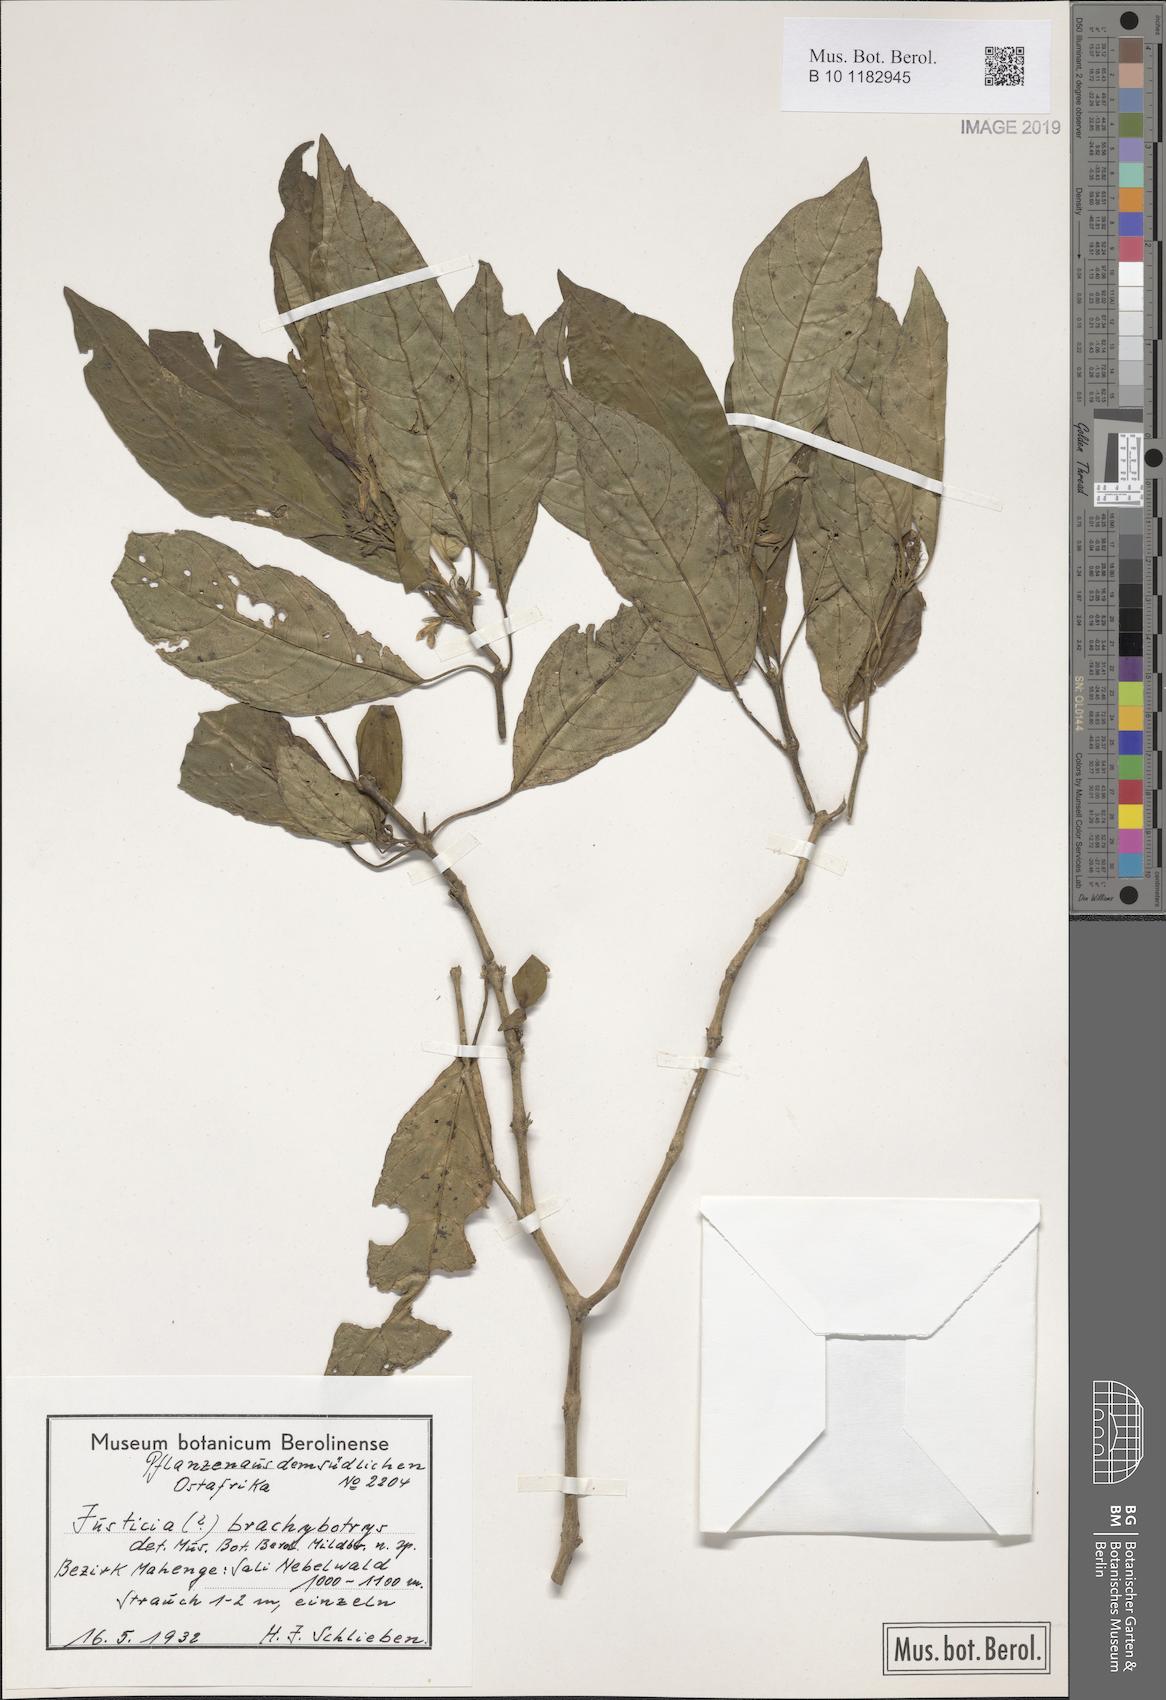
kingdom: Plantae
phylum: Tracheophyta
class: Magnoliopsida
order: Lamiales
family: Acanthaceae
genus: Justicia
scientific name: Justicia
